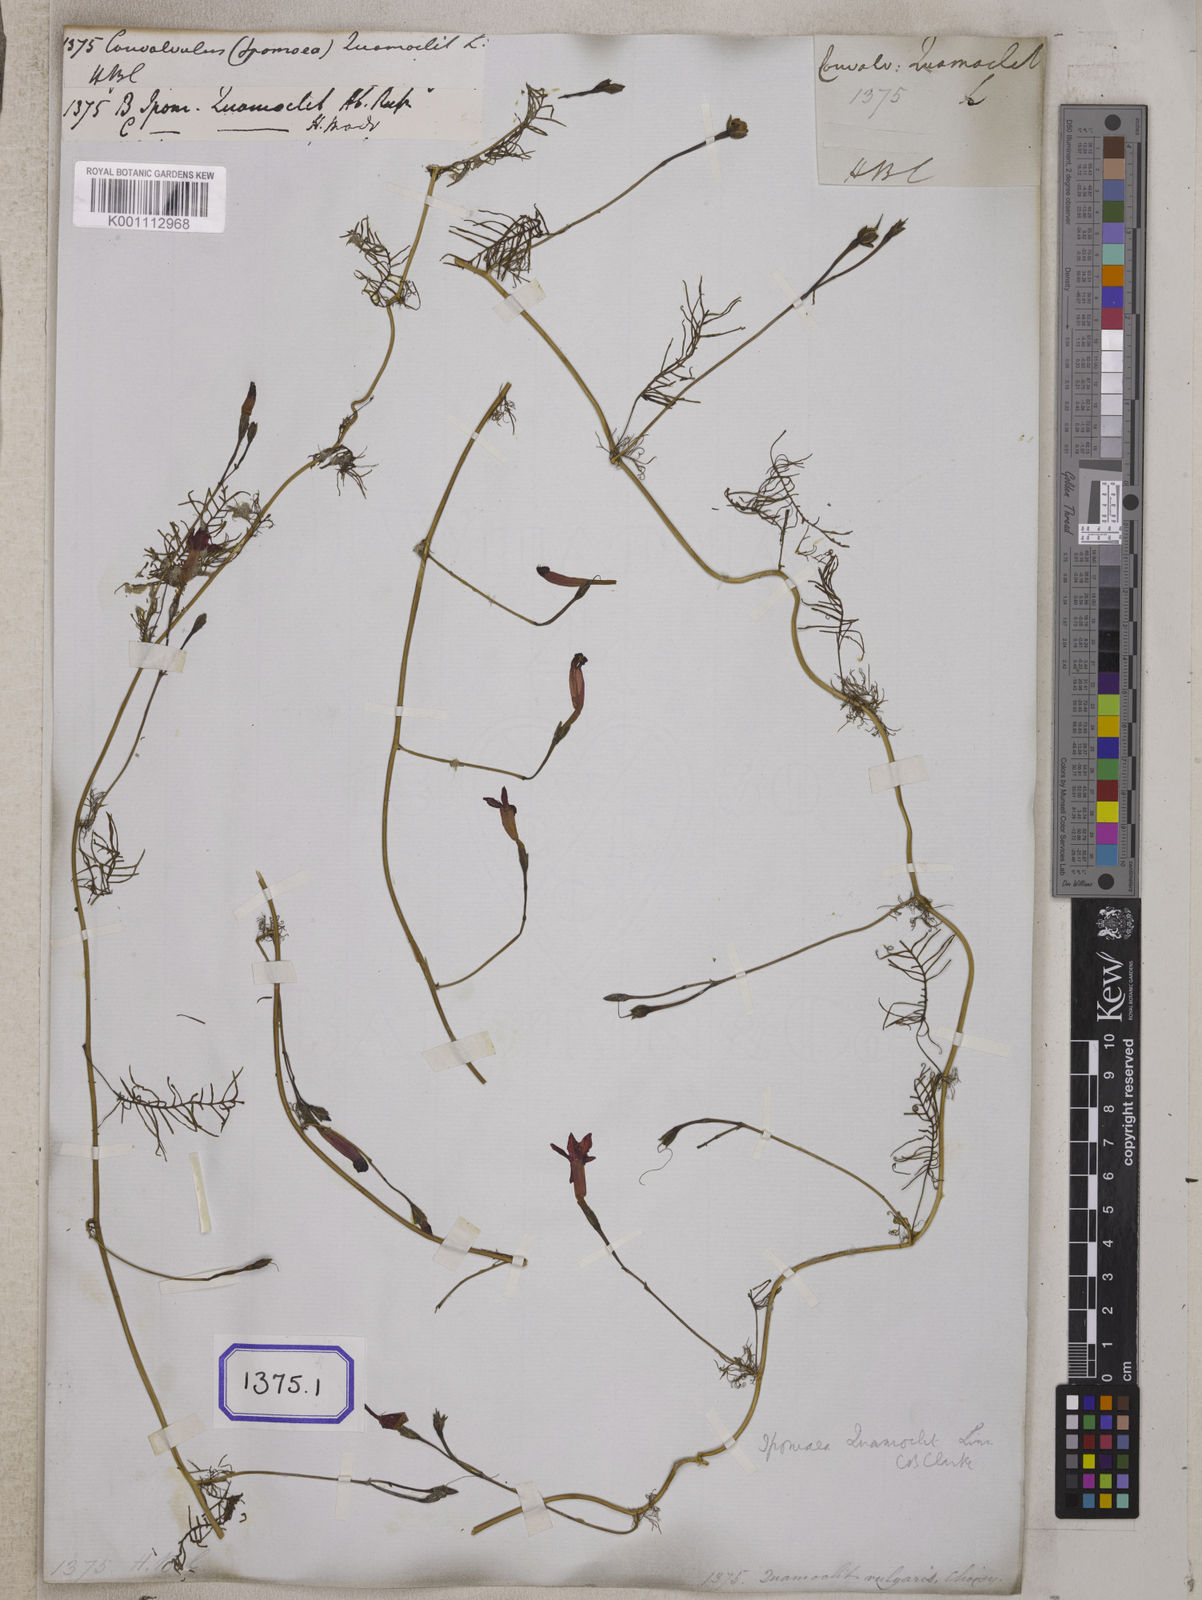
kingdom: Plantae
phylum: Tracheophyta
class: Magnoliopsida
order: Solanales
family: Convolvulaceae
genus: Ipomoea
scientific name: Ipomoea quamoclit
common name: Cypress vine
